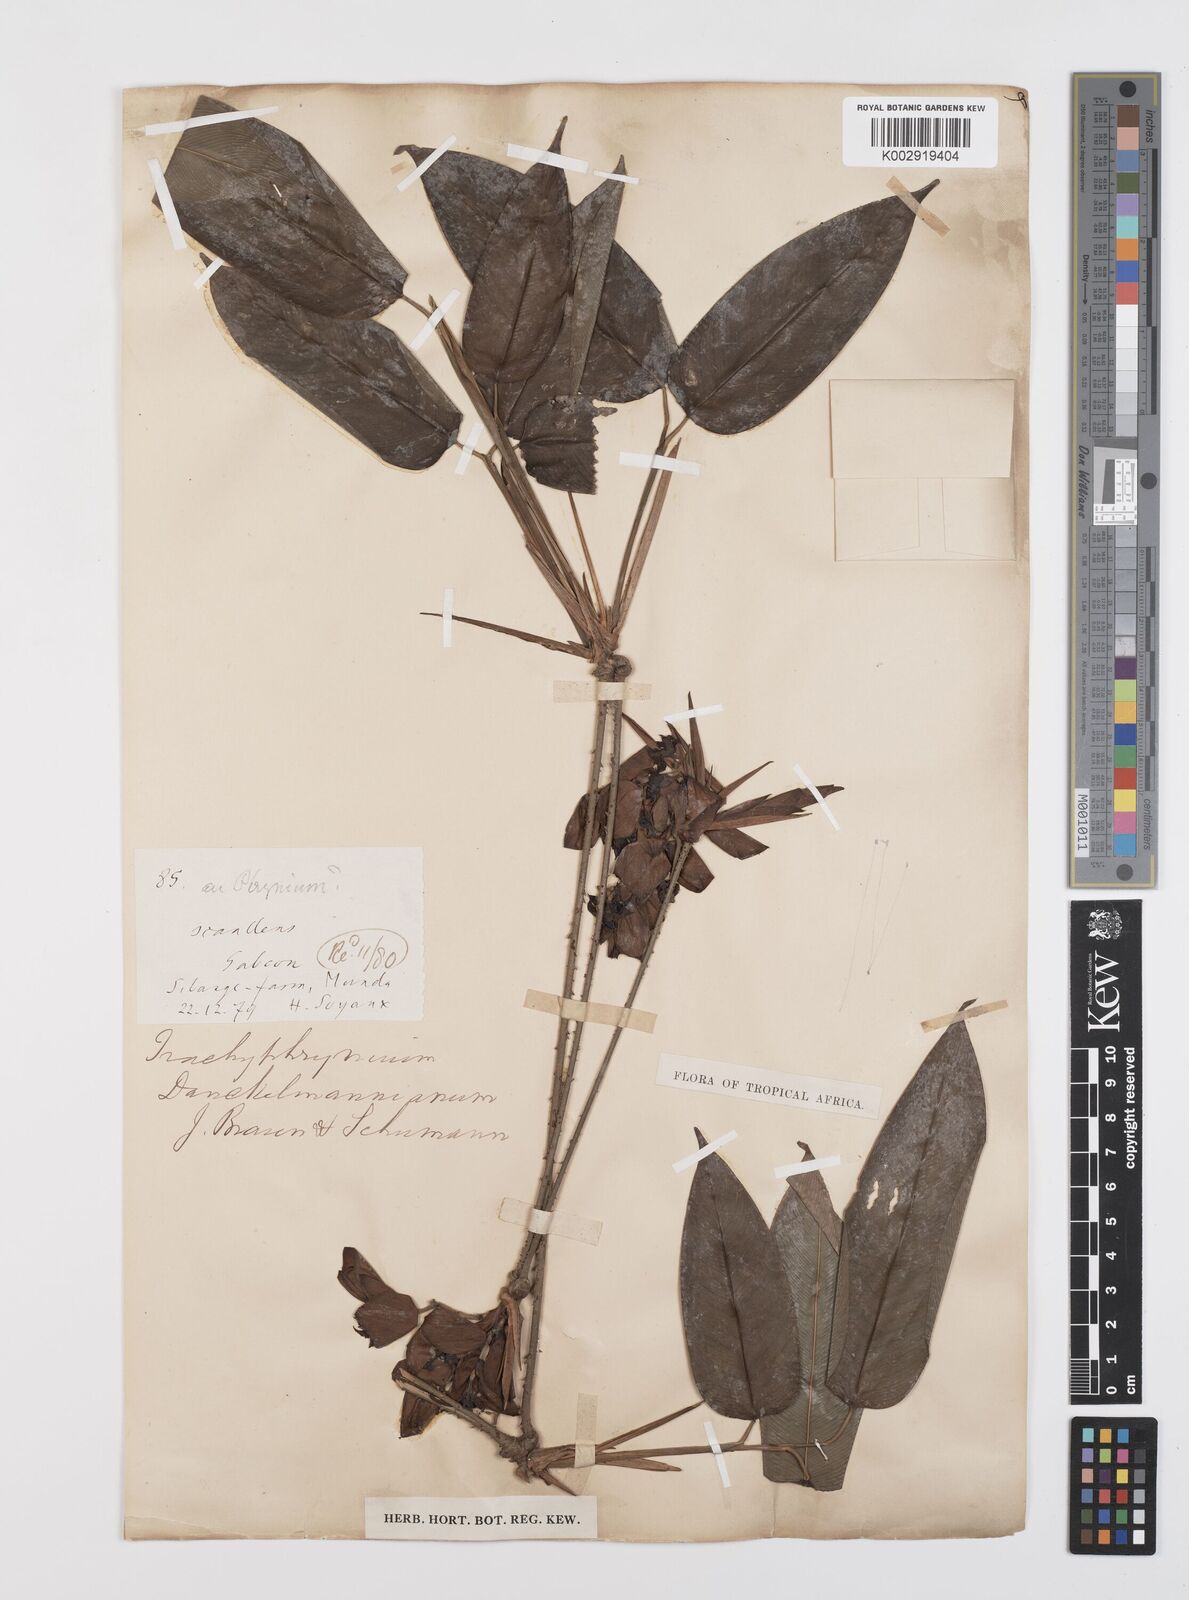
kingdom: Plantae
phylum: Tracheophyta
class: Liliopsida
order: Zingiberales
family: Marantaceae
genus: Haumania
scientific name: Haumania danckelmaniana
